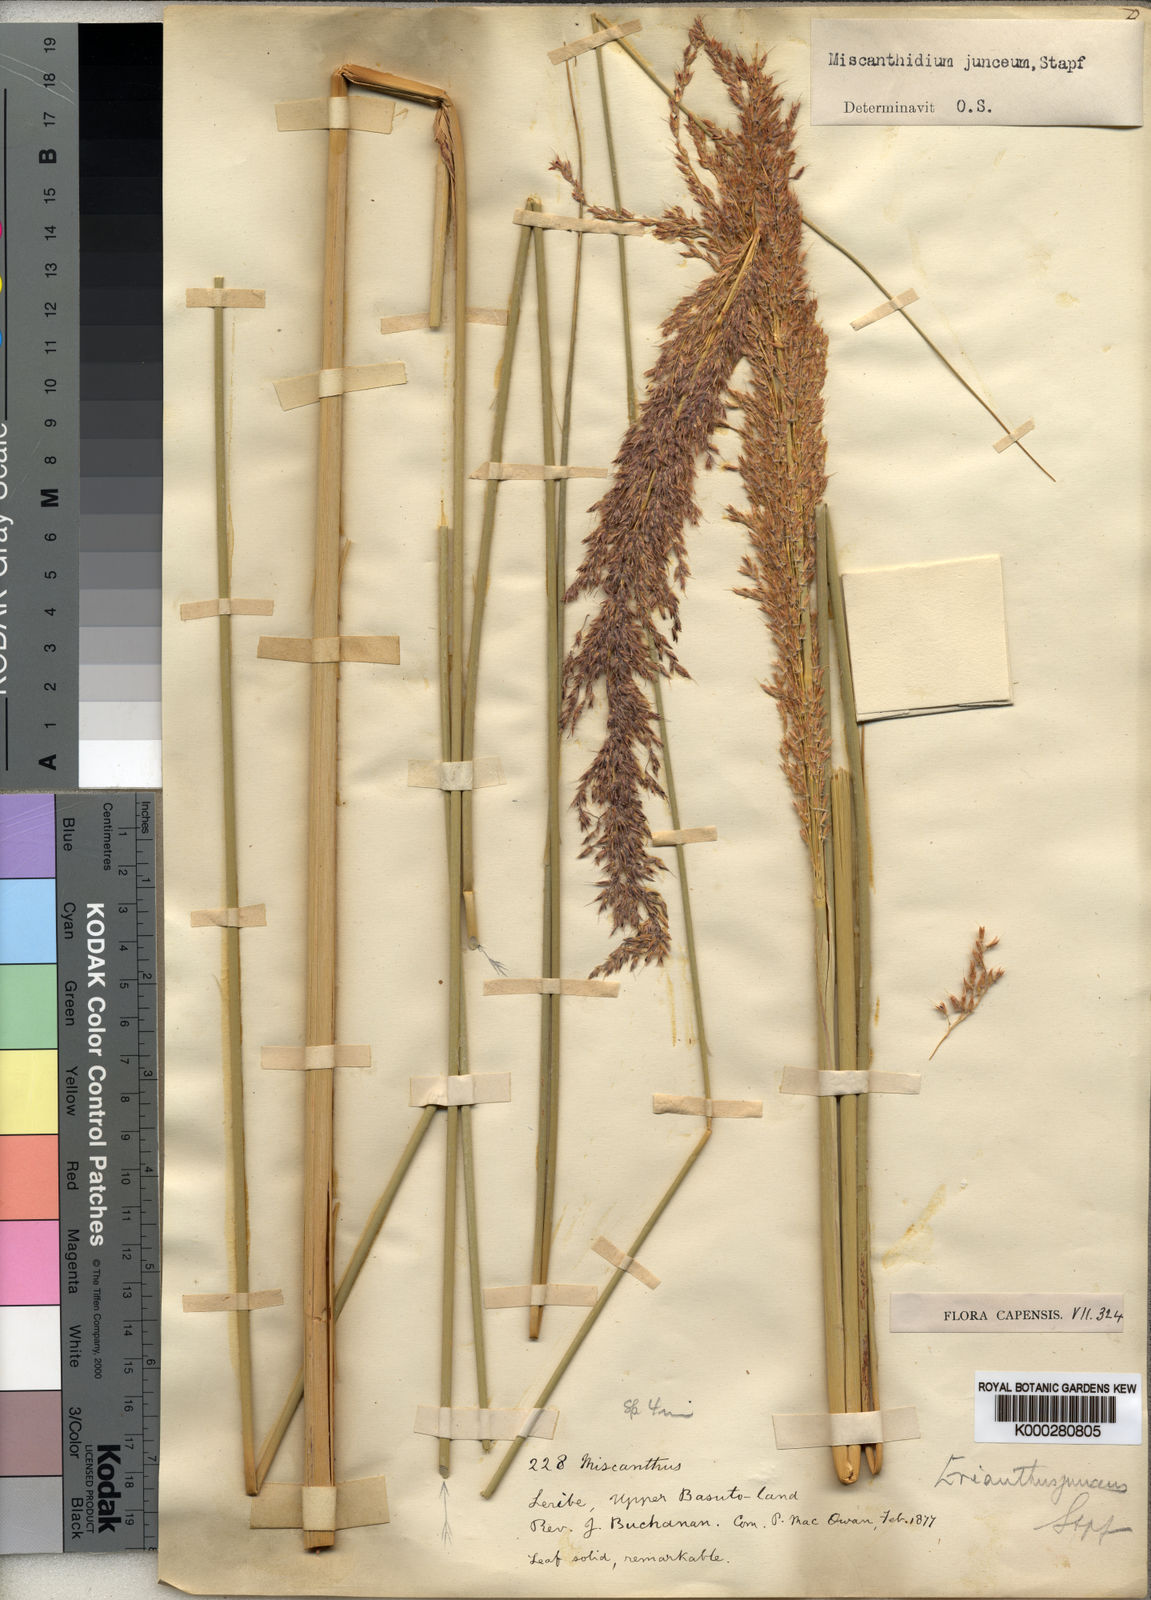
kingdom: Plantae
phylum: Tracheophyta
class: Liliopsida
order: Poales
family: Poaceae
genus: Miscanthidium
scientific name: Miscanthidium junceum
